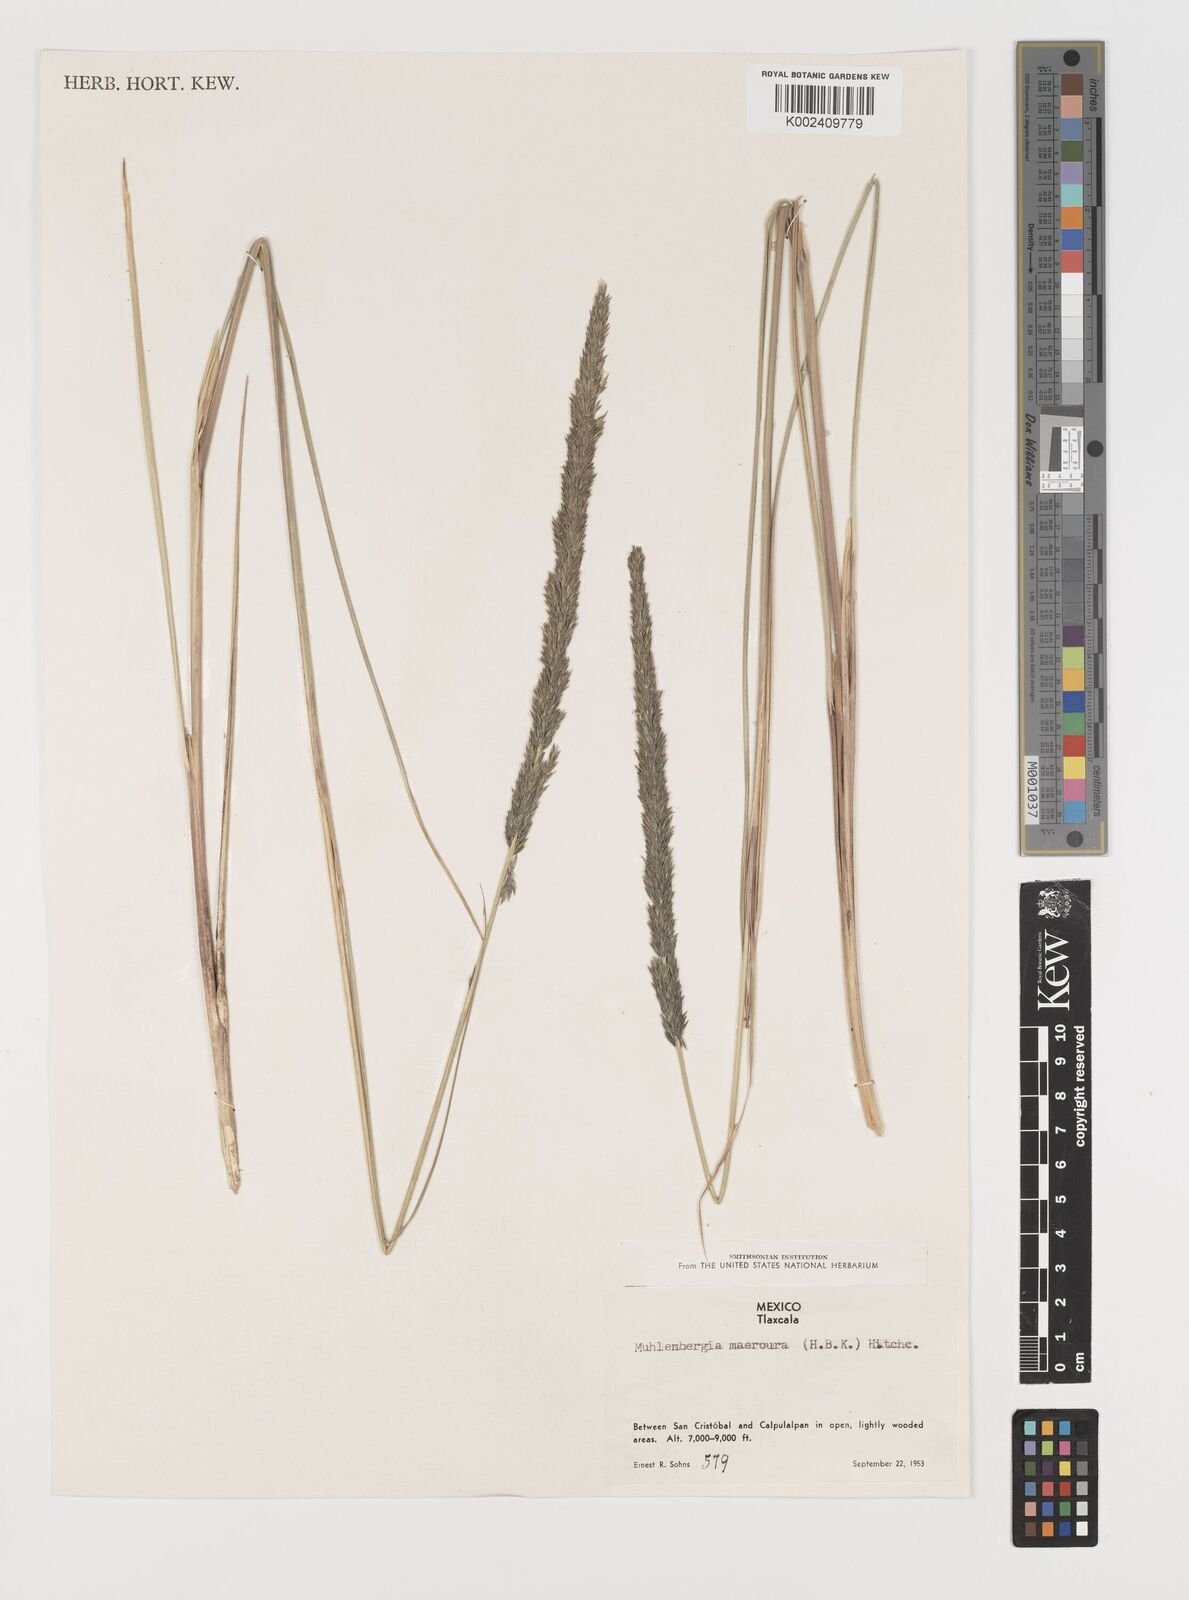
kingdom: Plantae
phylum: Tracheophyta
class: Liliopsida
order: Poales
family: Poaceae
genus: Muhlenbergia
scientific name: Muhlenbergia macroura
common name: Mexican broomroot
